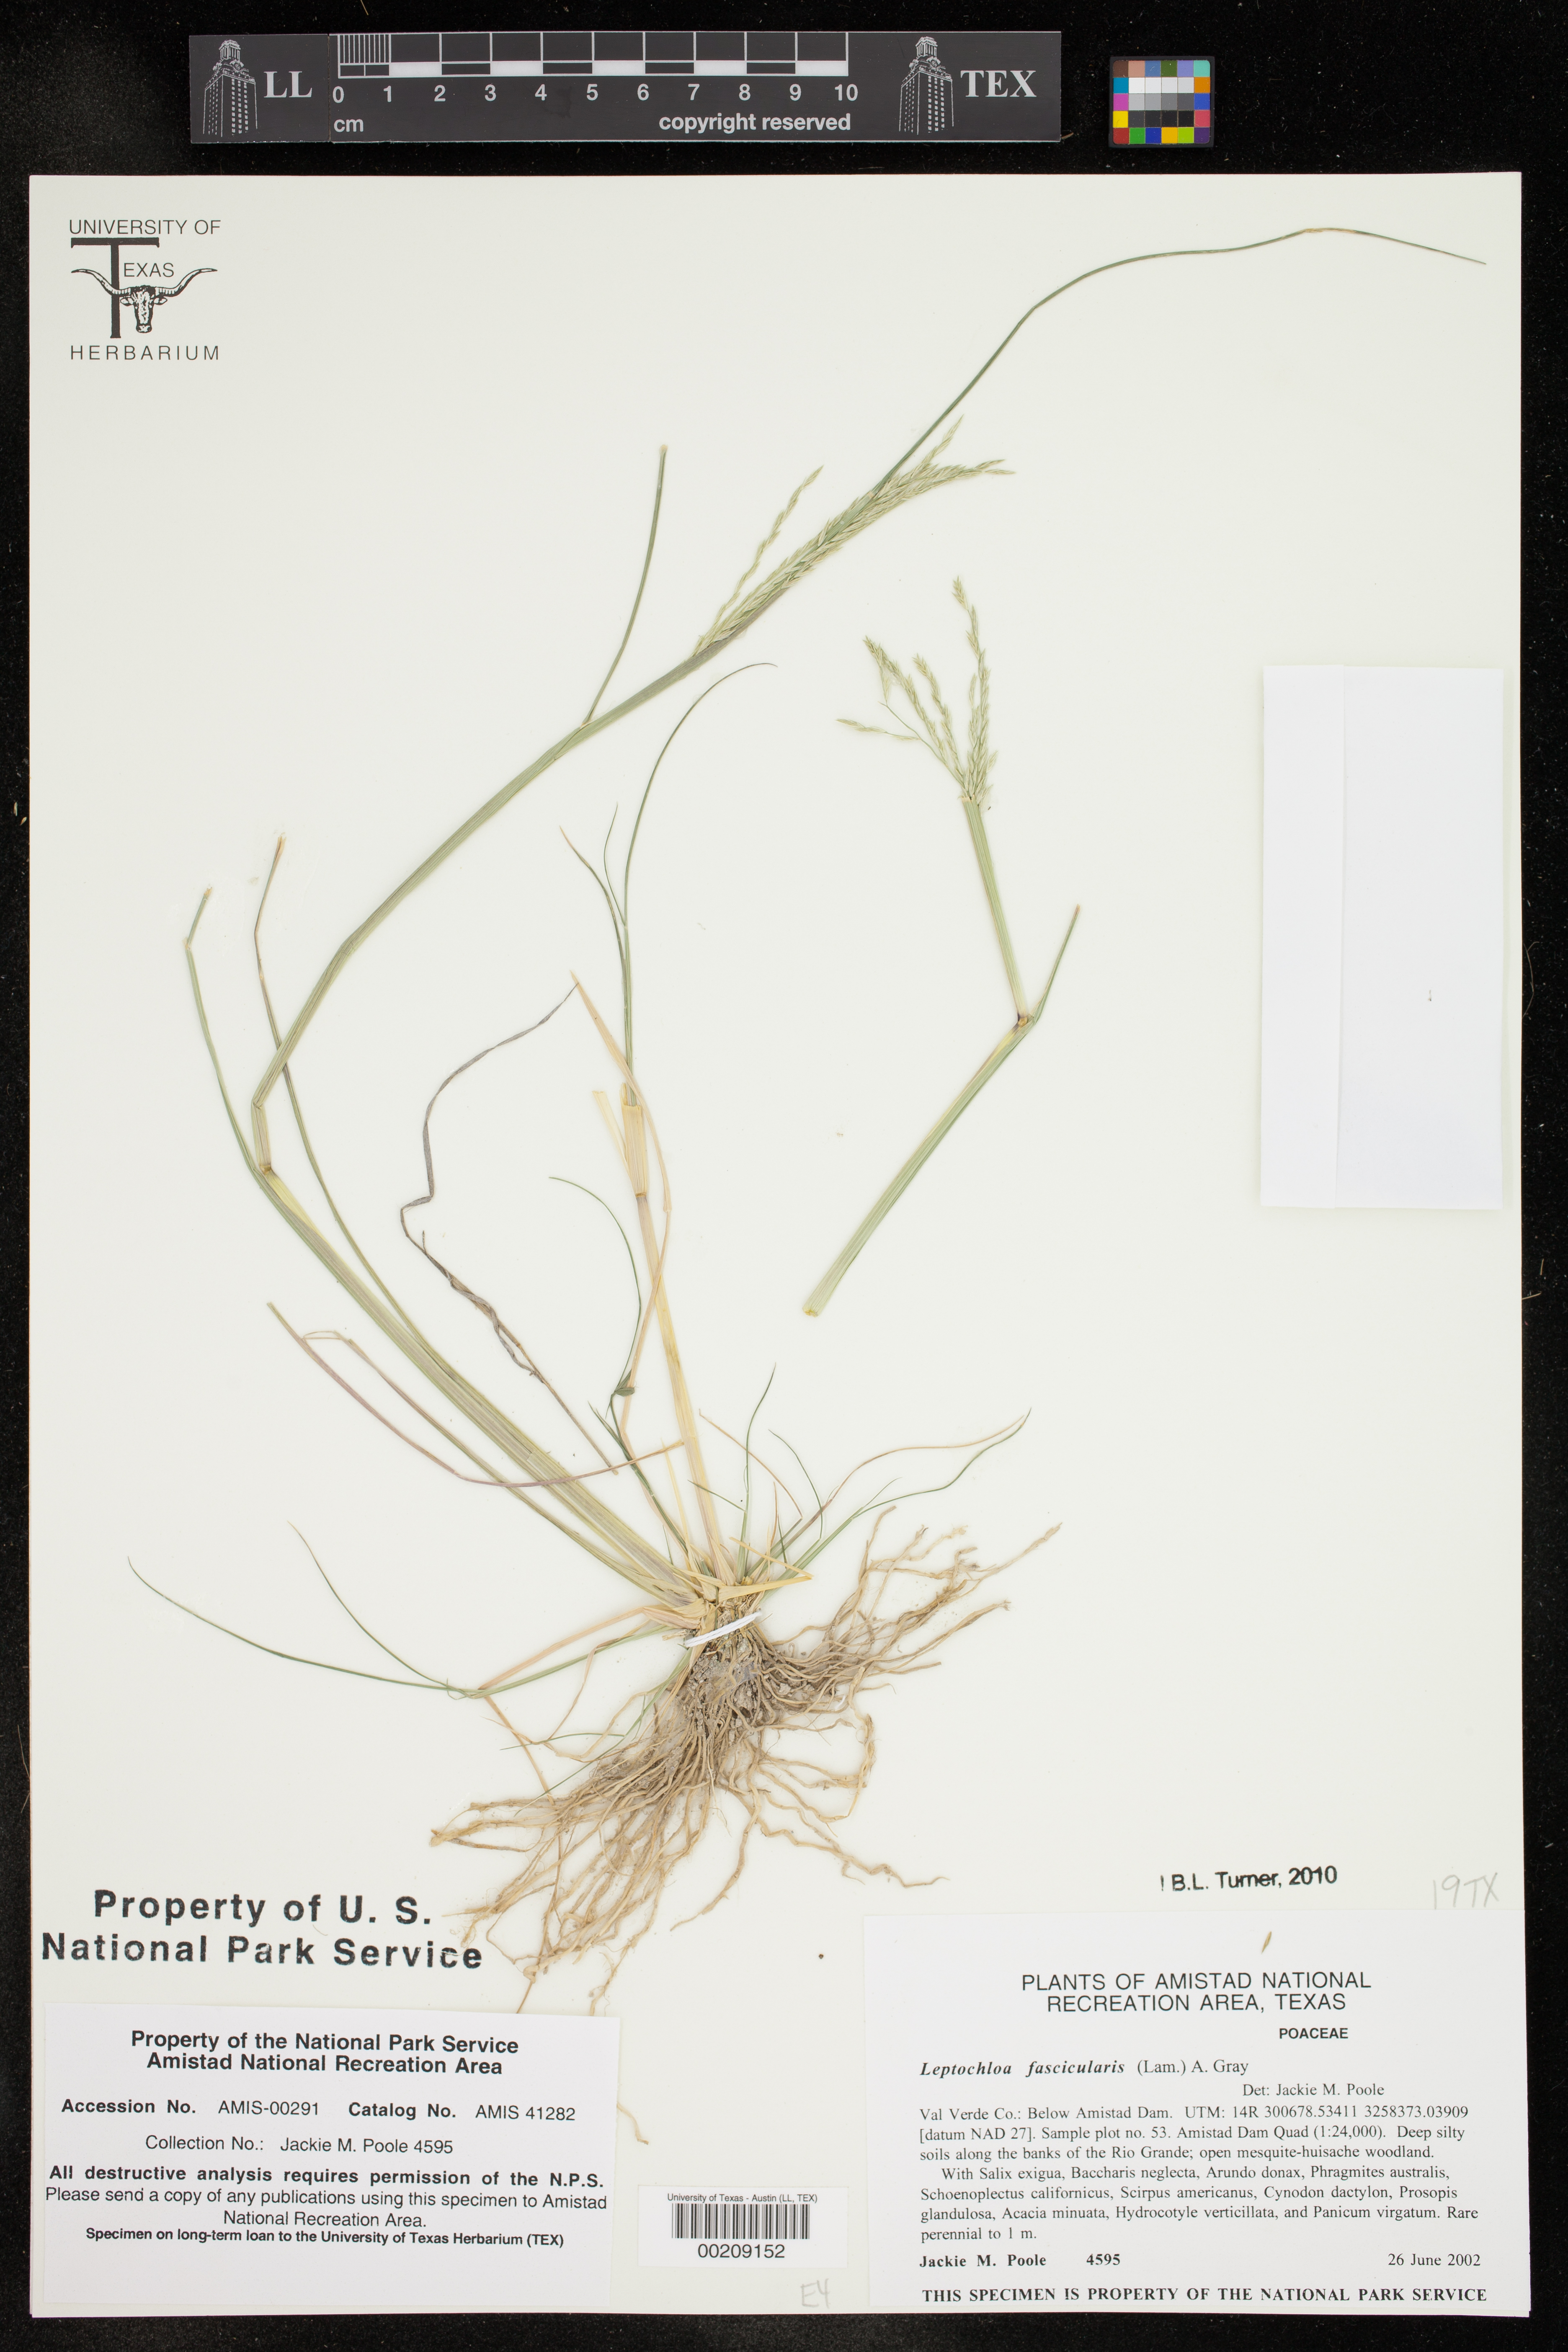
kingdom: Plantae
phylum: Tracheophyta
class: Liliopsida
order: Poales
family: Poaceae
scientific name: Poaceae
